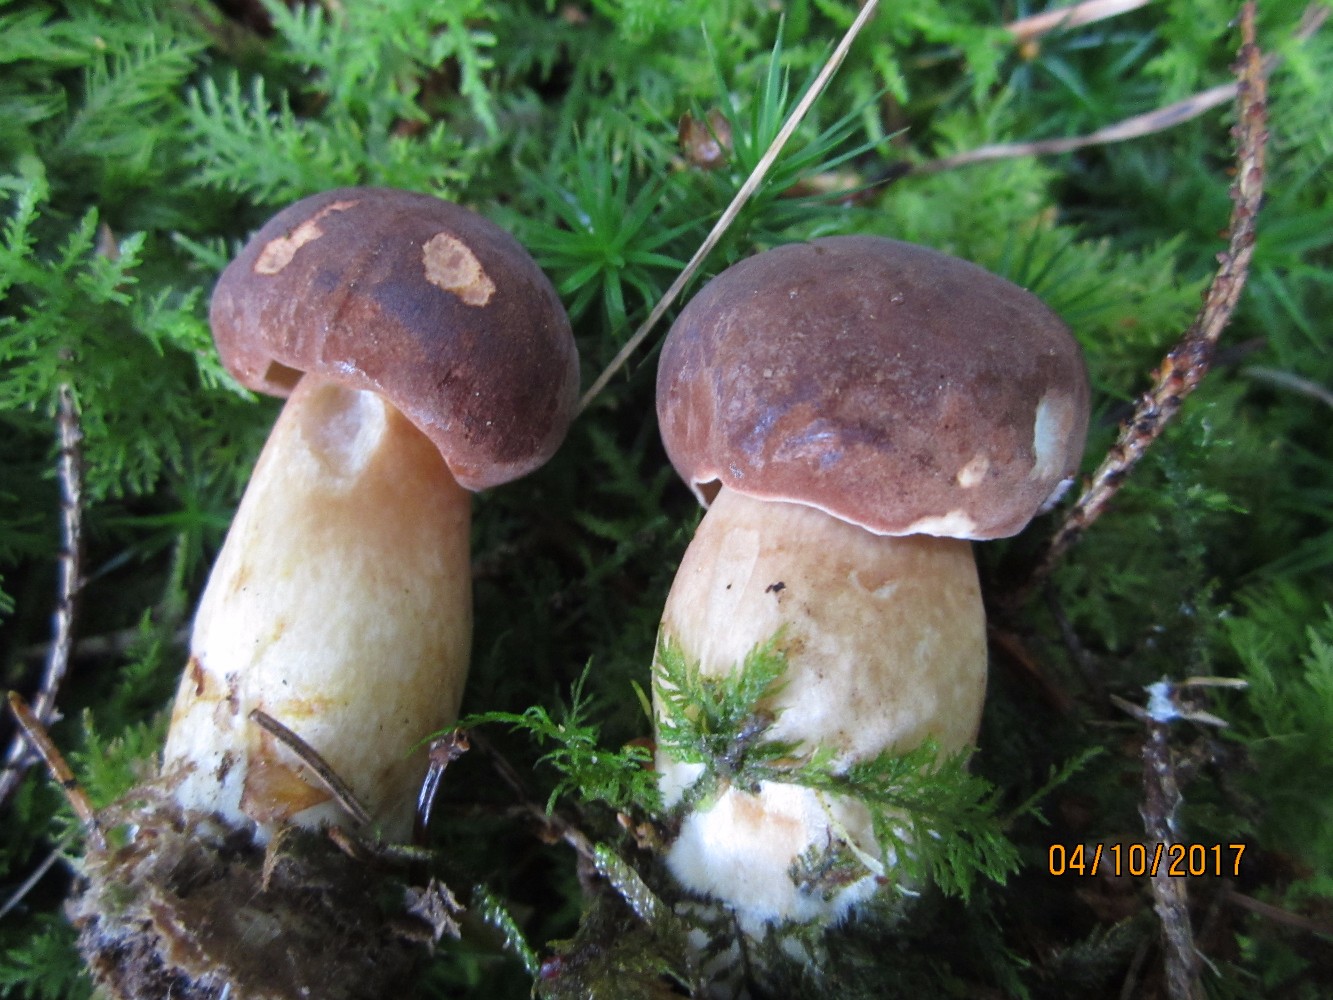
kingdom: Fungi
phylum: Basidiomycota
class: Agaricomycetes
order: Boletales
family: Boletaceae
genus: Imleria
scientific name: Imleria badia
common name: brunstokket rørhat
